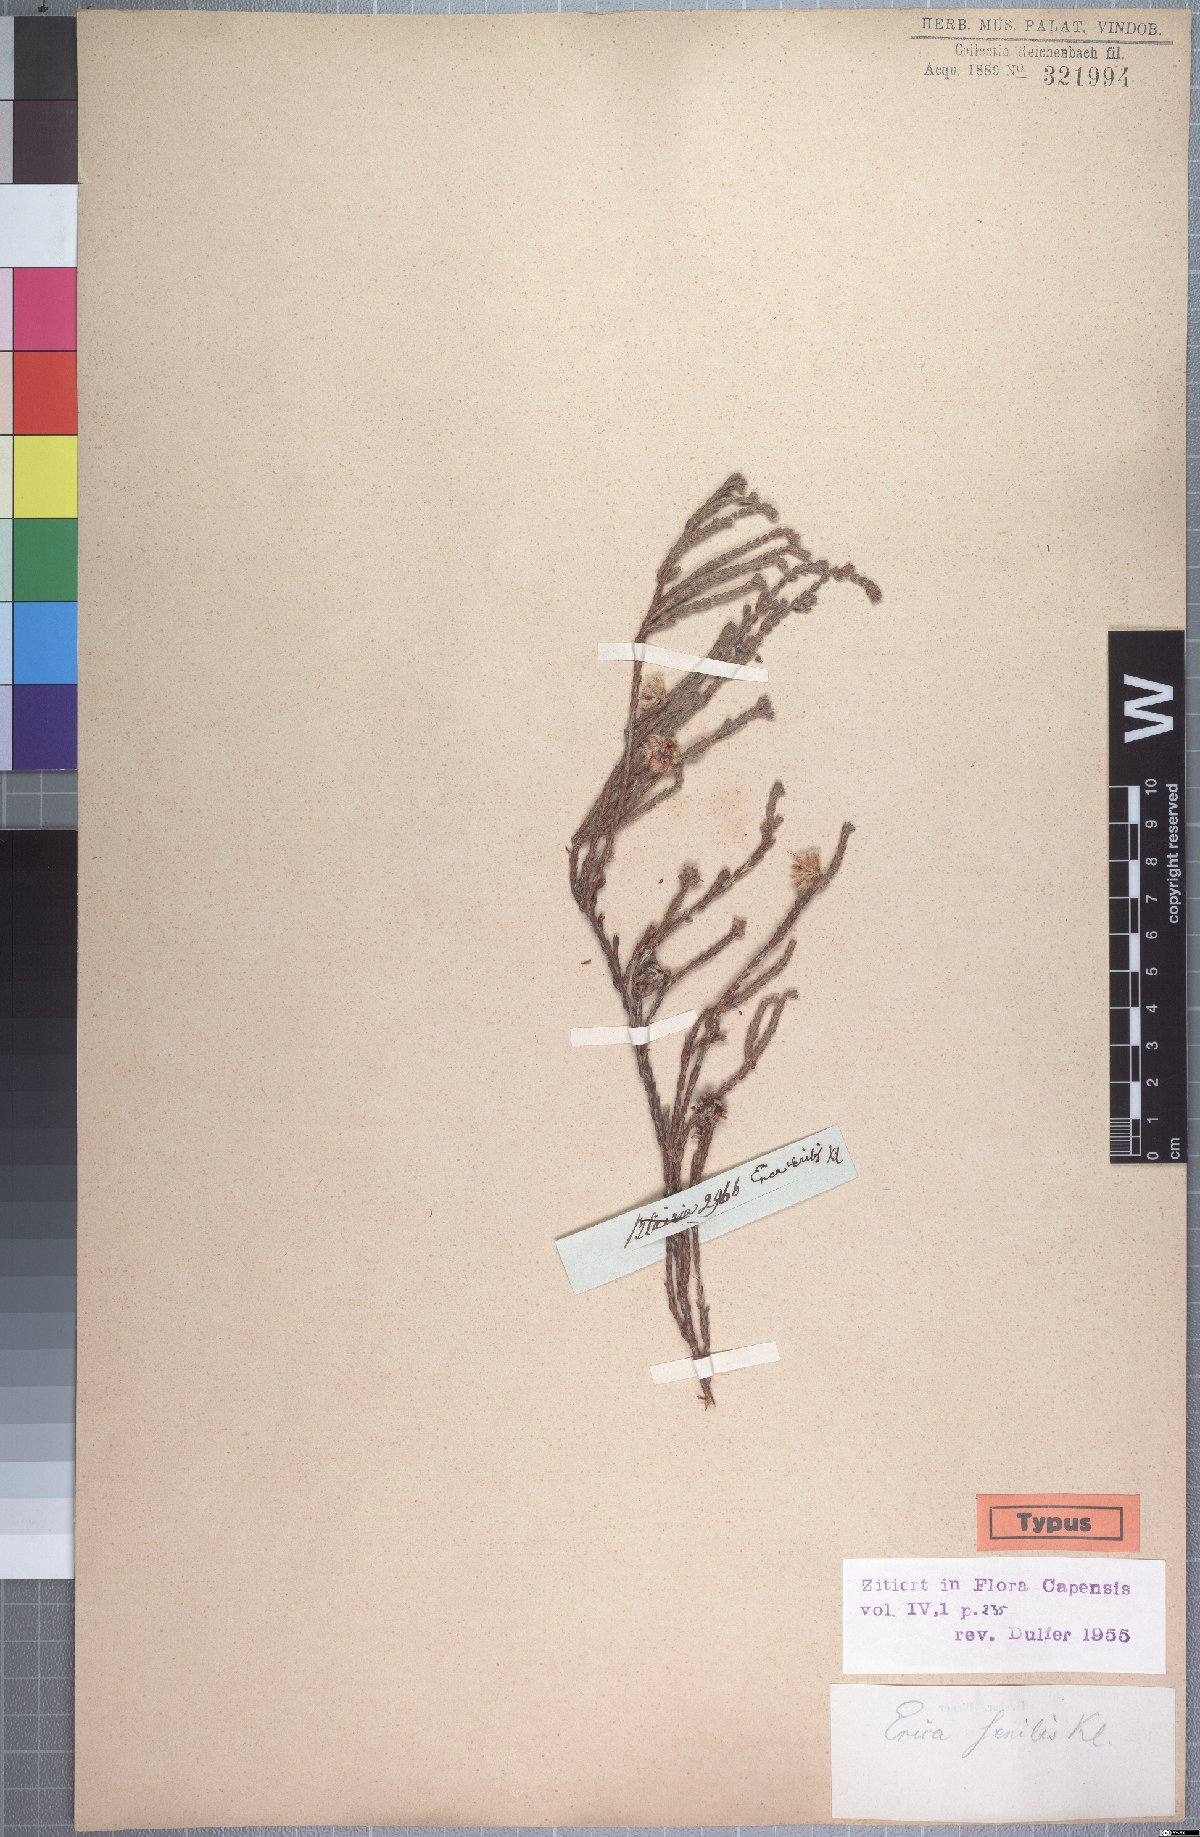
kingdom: Plantae
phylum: Tracheophyta
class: Magnoliopsida
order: Ericales
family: Ericaceae
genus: Erica
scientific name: Erica senilis
